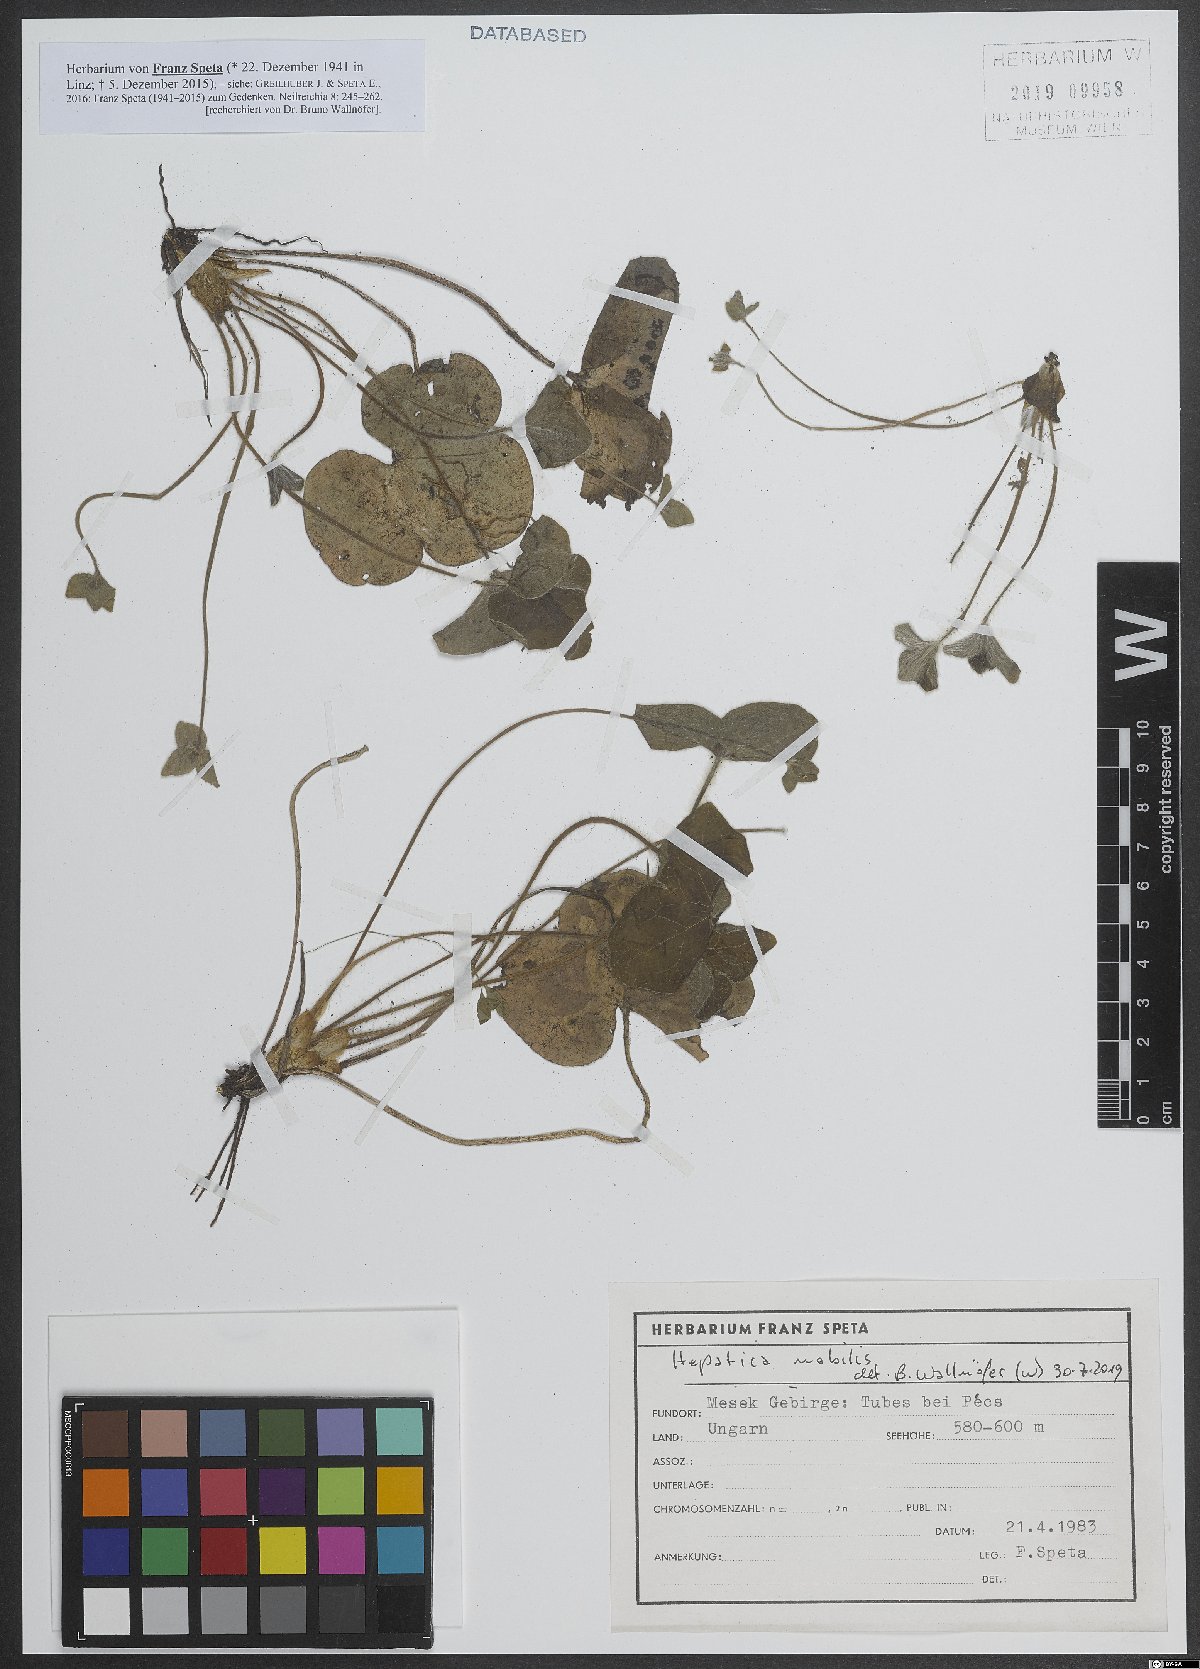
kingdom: Plantae
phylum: Tracheophyta
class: Magnoliopsida
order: Ranunculales
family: Ranunculaceae
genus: Hepatica
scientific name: Hepatica nobilis
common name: Liverleaf
